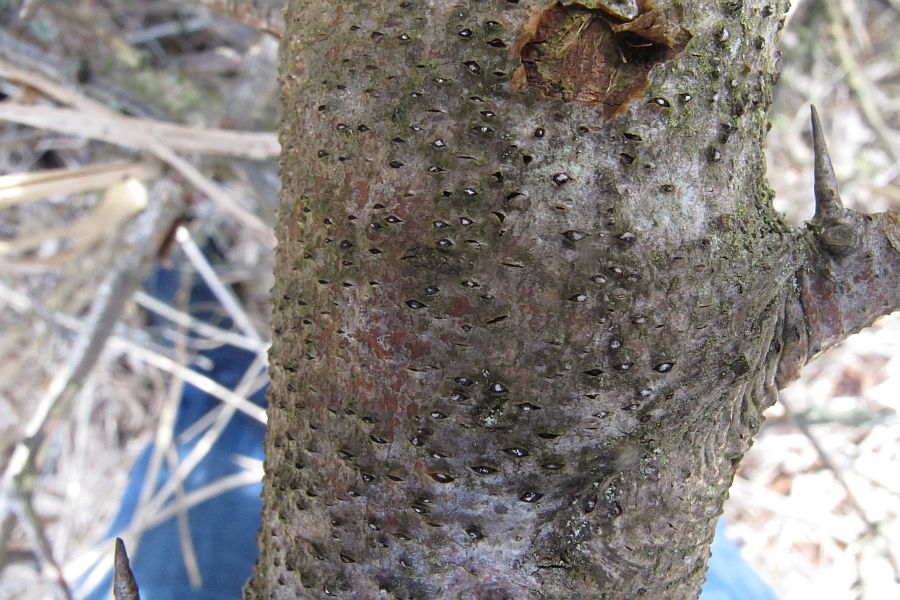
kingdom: Fungi
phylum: Ascomycota
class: Sordariomycetes
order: Xylariales
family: Diatrypaceae
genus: Eutypella
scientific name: Eutypella prunastri
